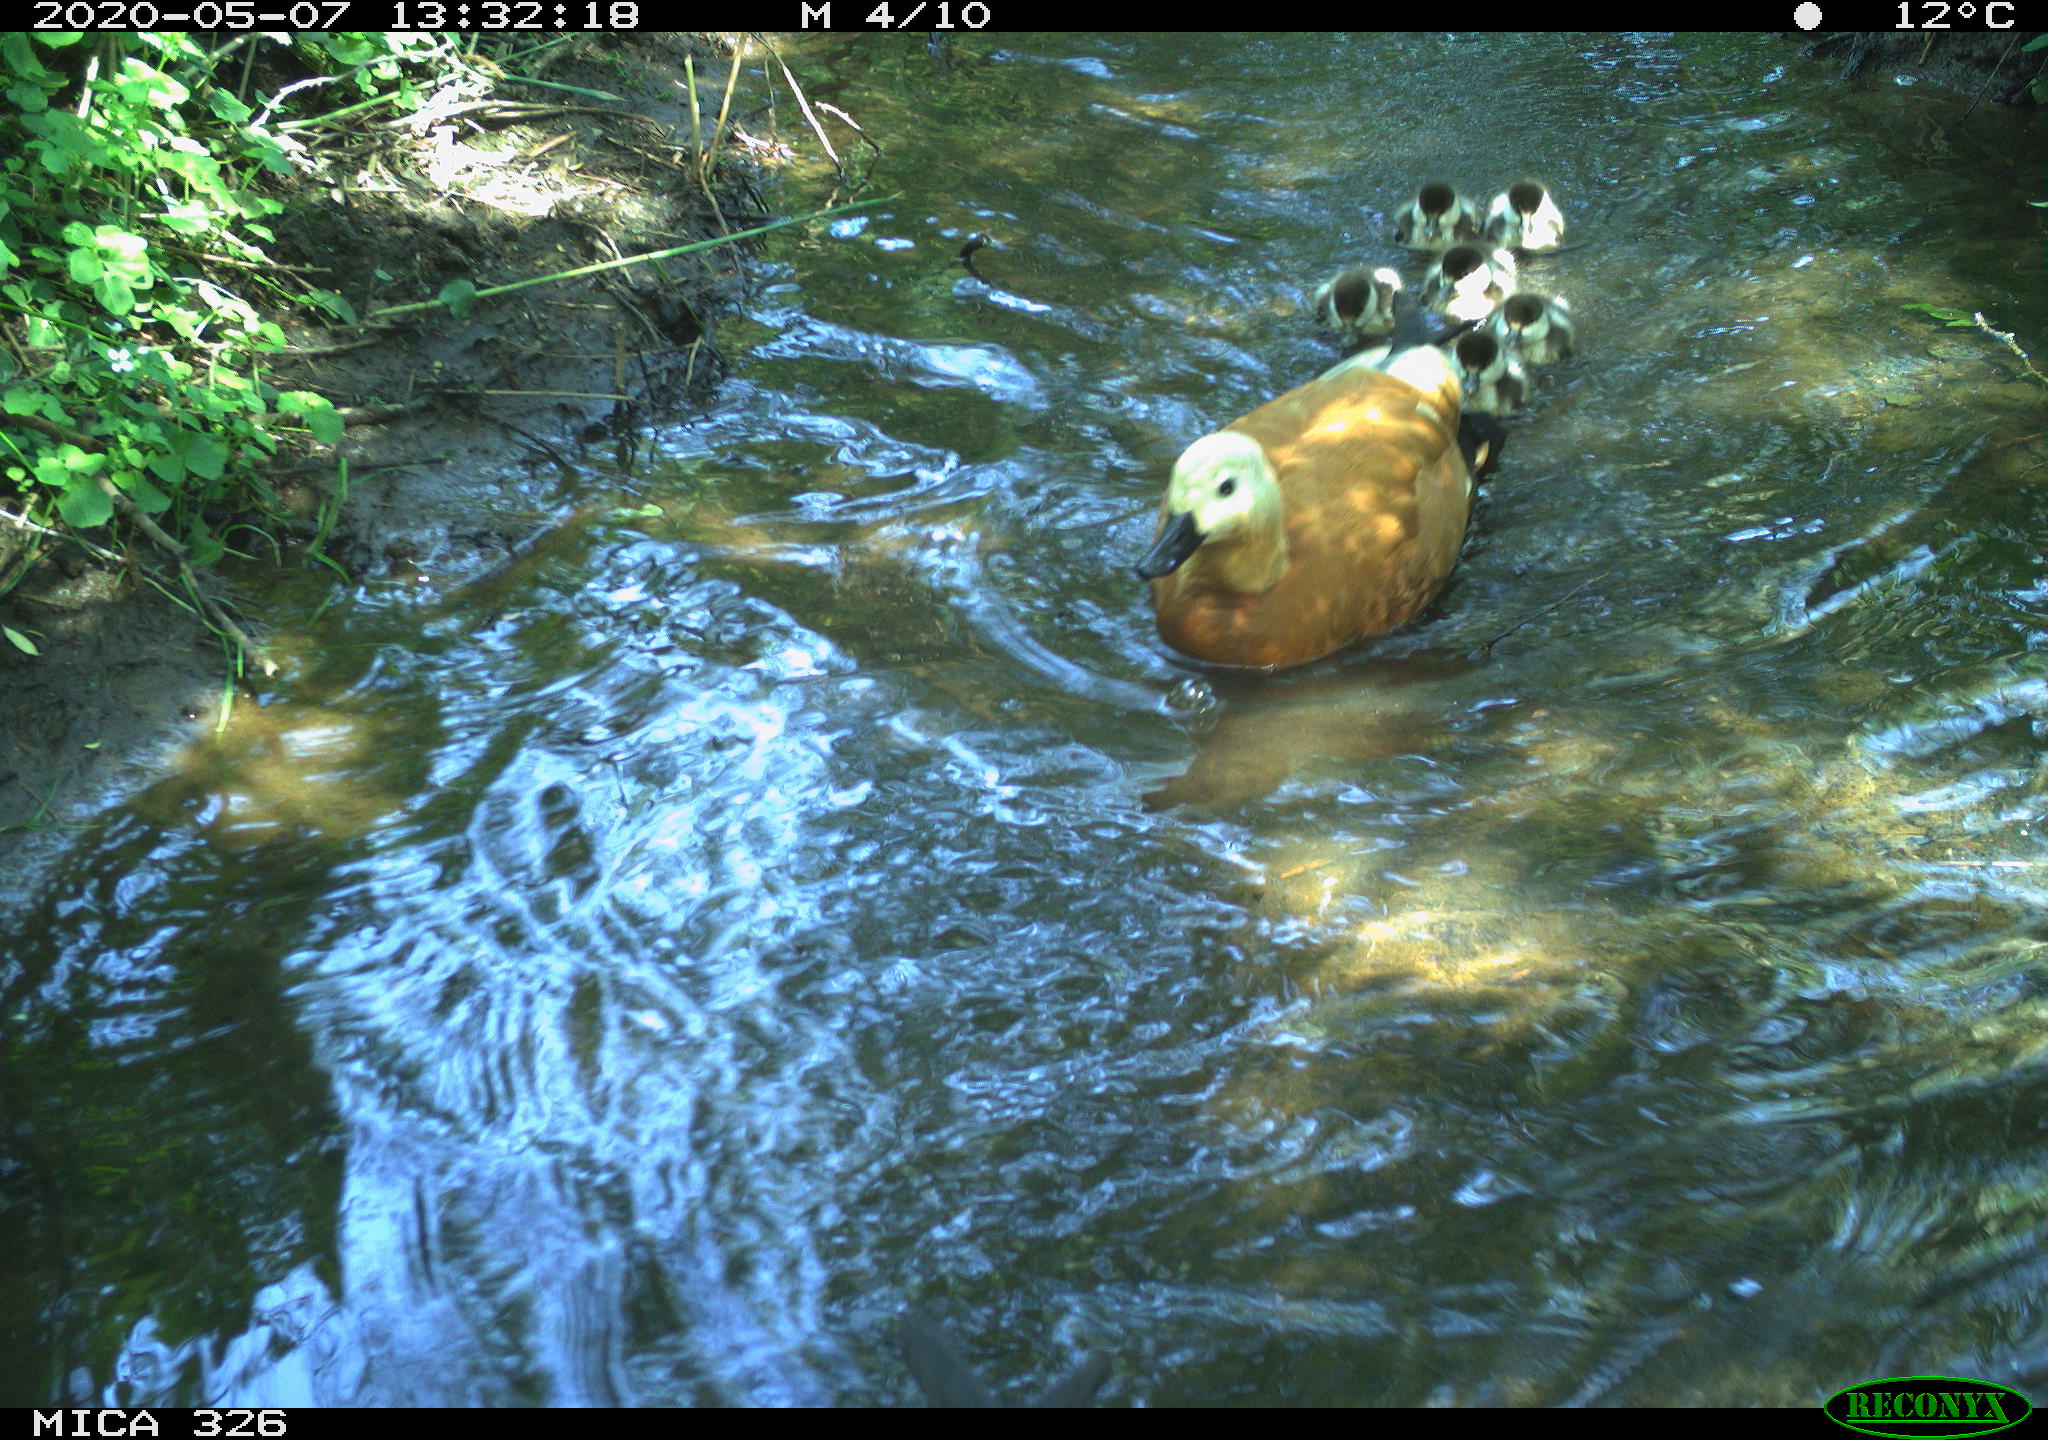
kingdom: Animalia
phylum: Chordata
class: Aves
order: Anseriformes
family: Anatidae
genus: Tadorna
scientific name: Tadorna ferruginea
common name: Ruddy shelduck
